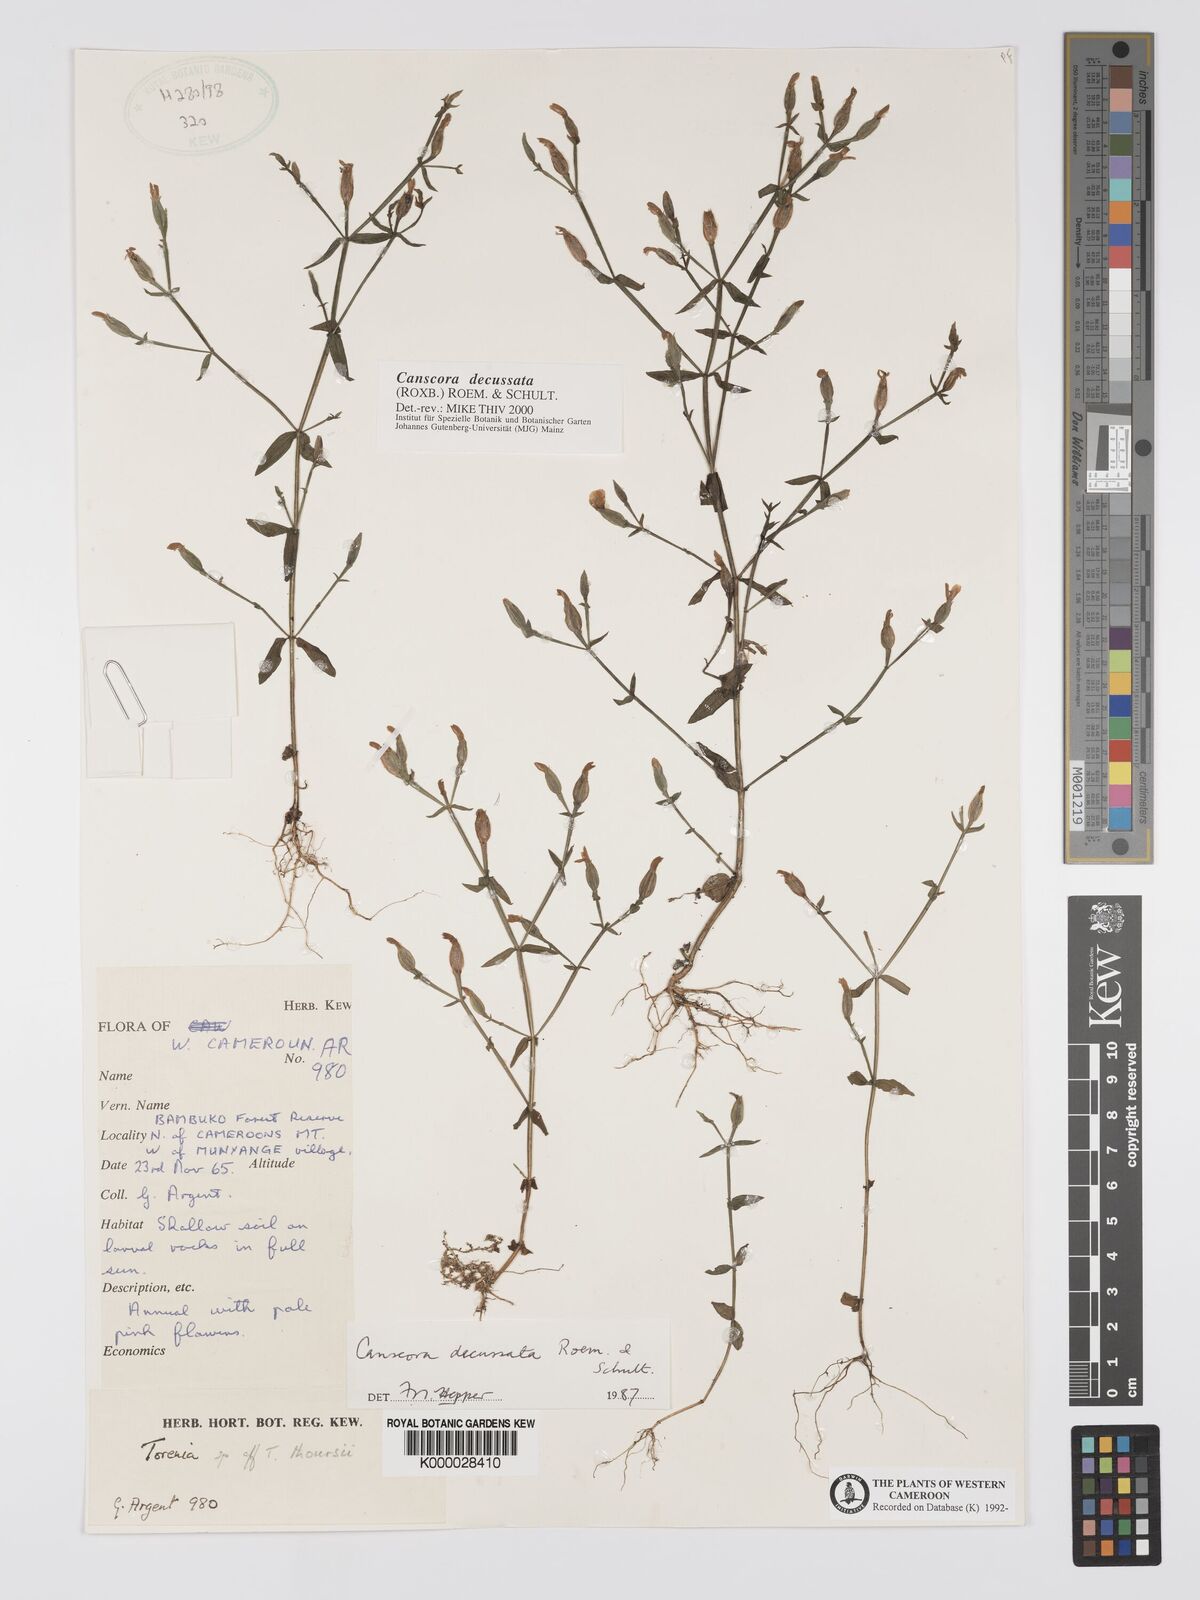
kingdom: Plantae
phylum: Tracheophyta
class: Magnoliopsida
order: Gentianales
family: Gentianaceae
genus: Canscora
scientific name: Canscora
